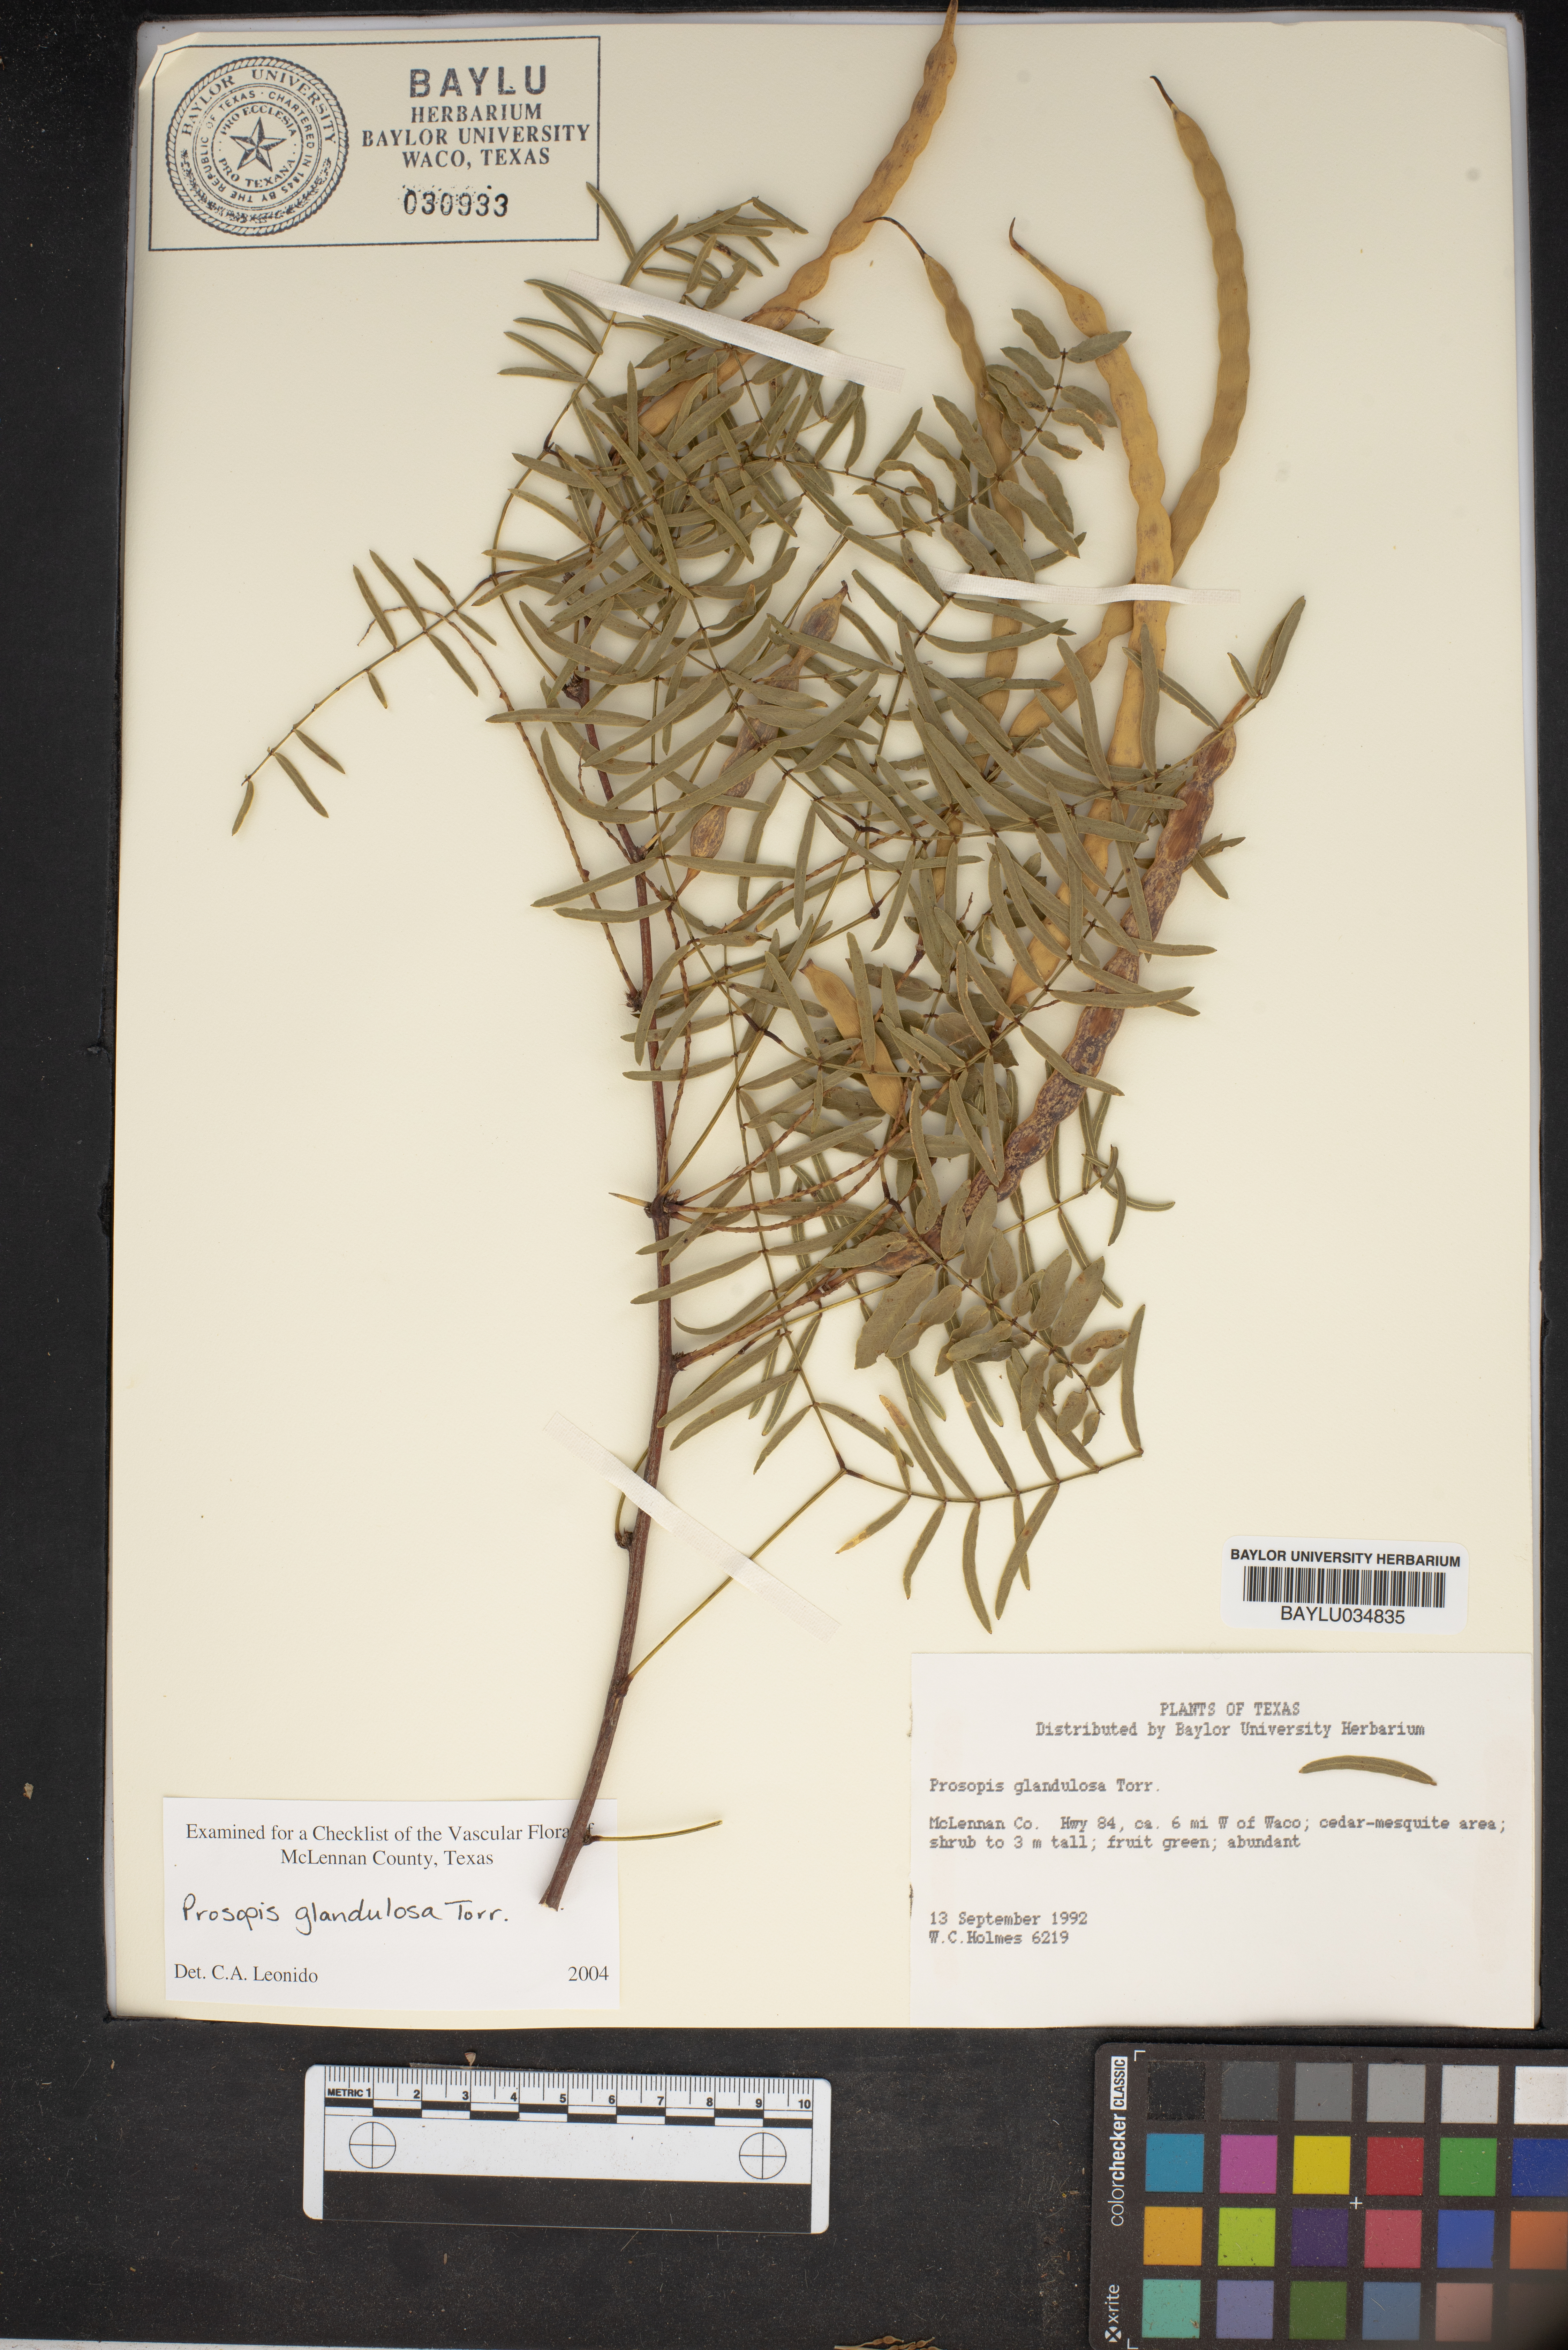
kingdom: Plantae
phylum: Tracheophyta
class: Magnoliopsida
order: Fabales
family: Fabaceae
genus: Prosopis
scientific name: Prosopis glandulosa
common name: Honey mesquite
